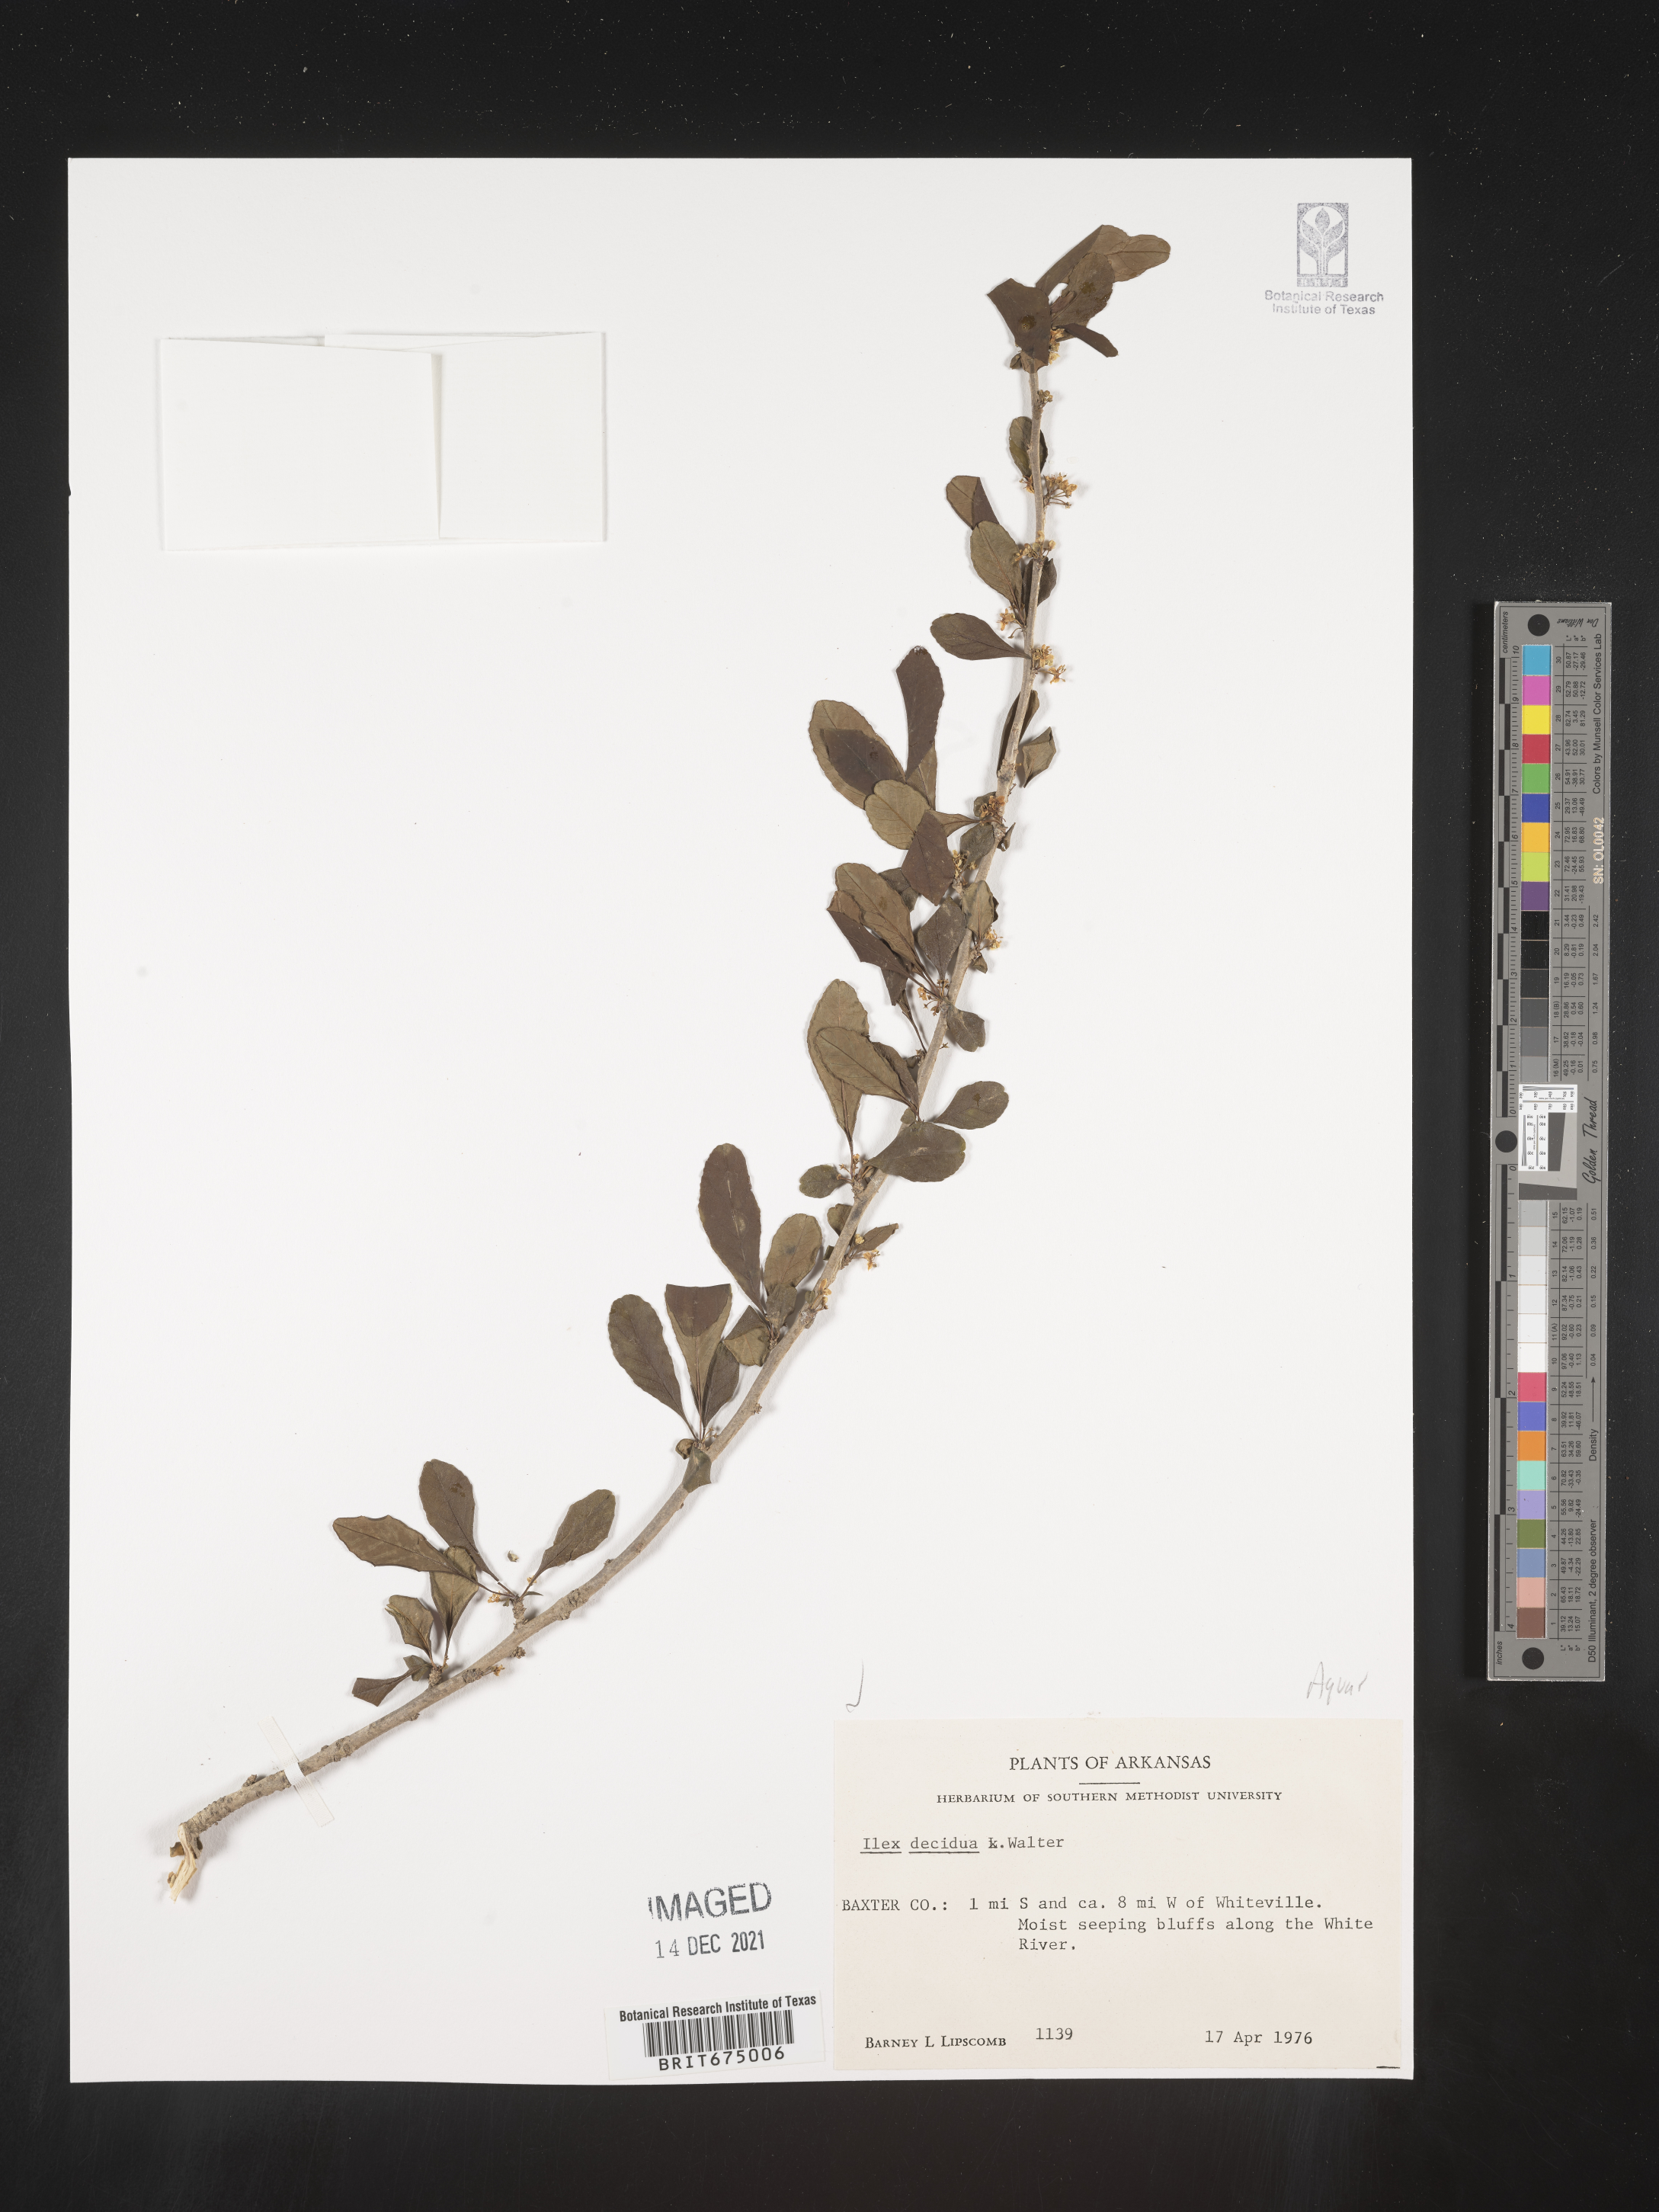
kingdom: Plantae
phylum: Tracheophyta
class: Magnoliopsida
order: Aquifoliales
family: Aquifoliaceae
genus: Ilex
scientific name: Ilex decidua
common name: Possum-haw
